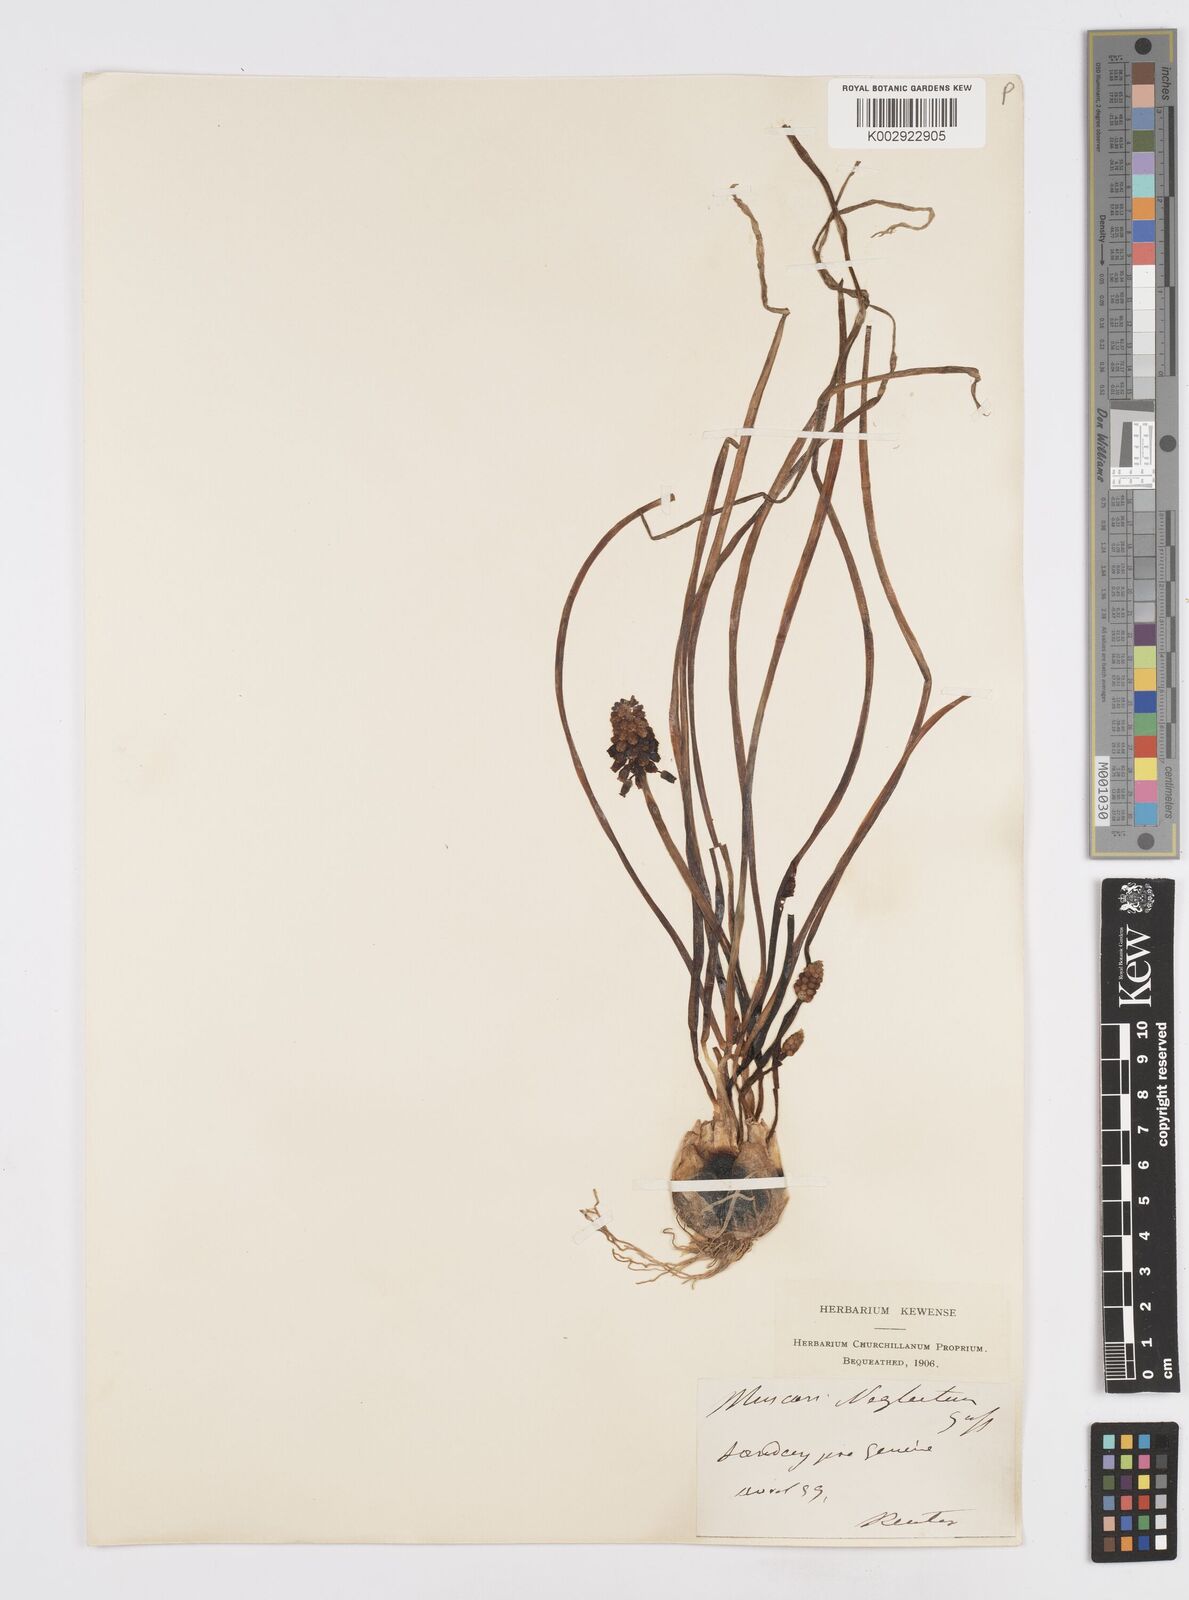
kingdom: Plantae
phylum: Tracheophyta
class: Liliopsida
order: Asparagales
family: Asparagaceae
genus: Muscari
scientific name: Muscari neglectum
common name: Grape-hyacinth
